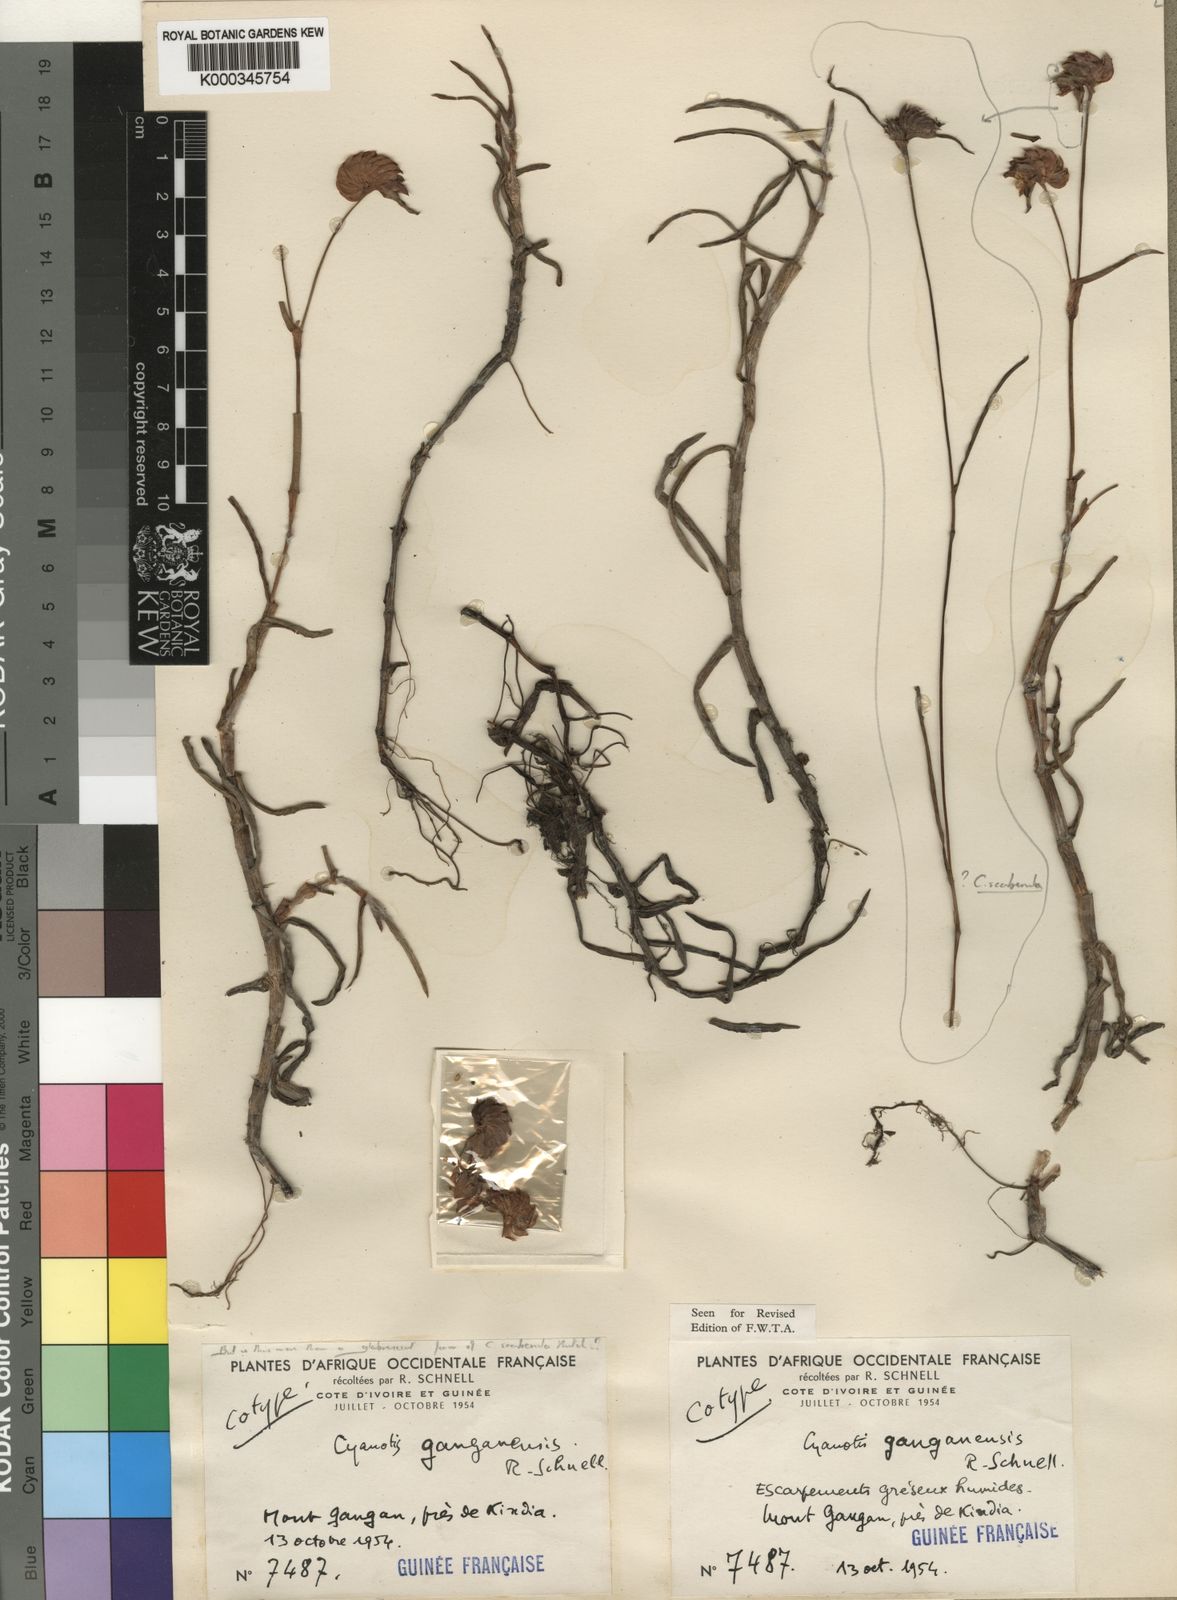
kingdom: Plantae
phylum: Tracheophyta
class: Liliopsida
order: Commelinales
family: Commelinaceae
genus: Cyanotis
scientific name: Cyanotis cristata
